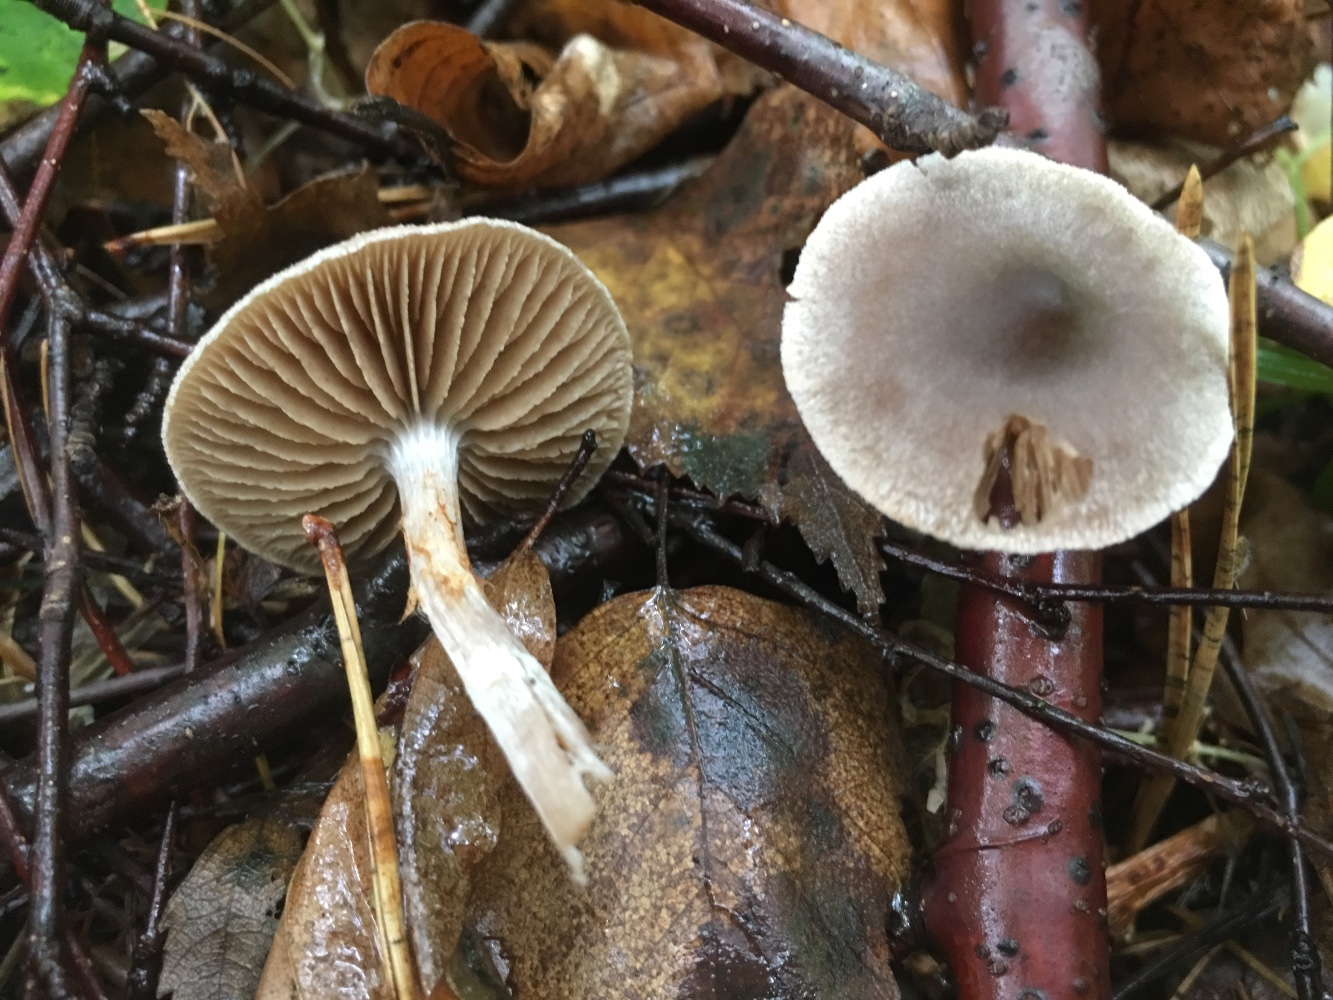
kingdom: Fungi
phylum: Basidiomycota
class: Agaricomycetes
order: Agaricales
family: Cortinariaceae
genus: Cortinarius
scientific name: Cortinarius
